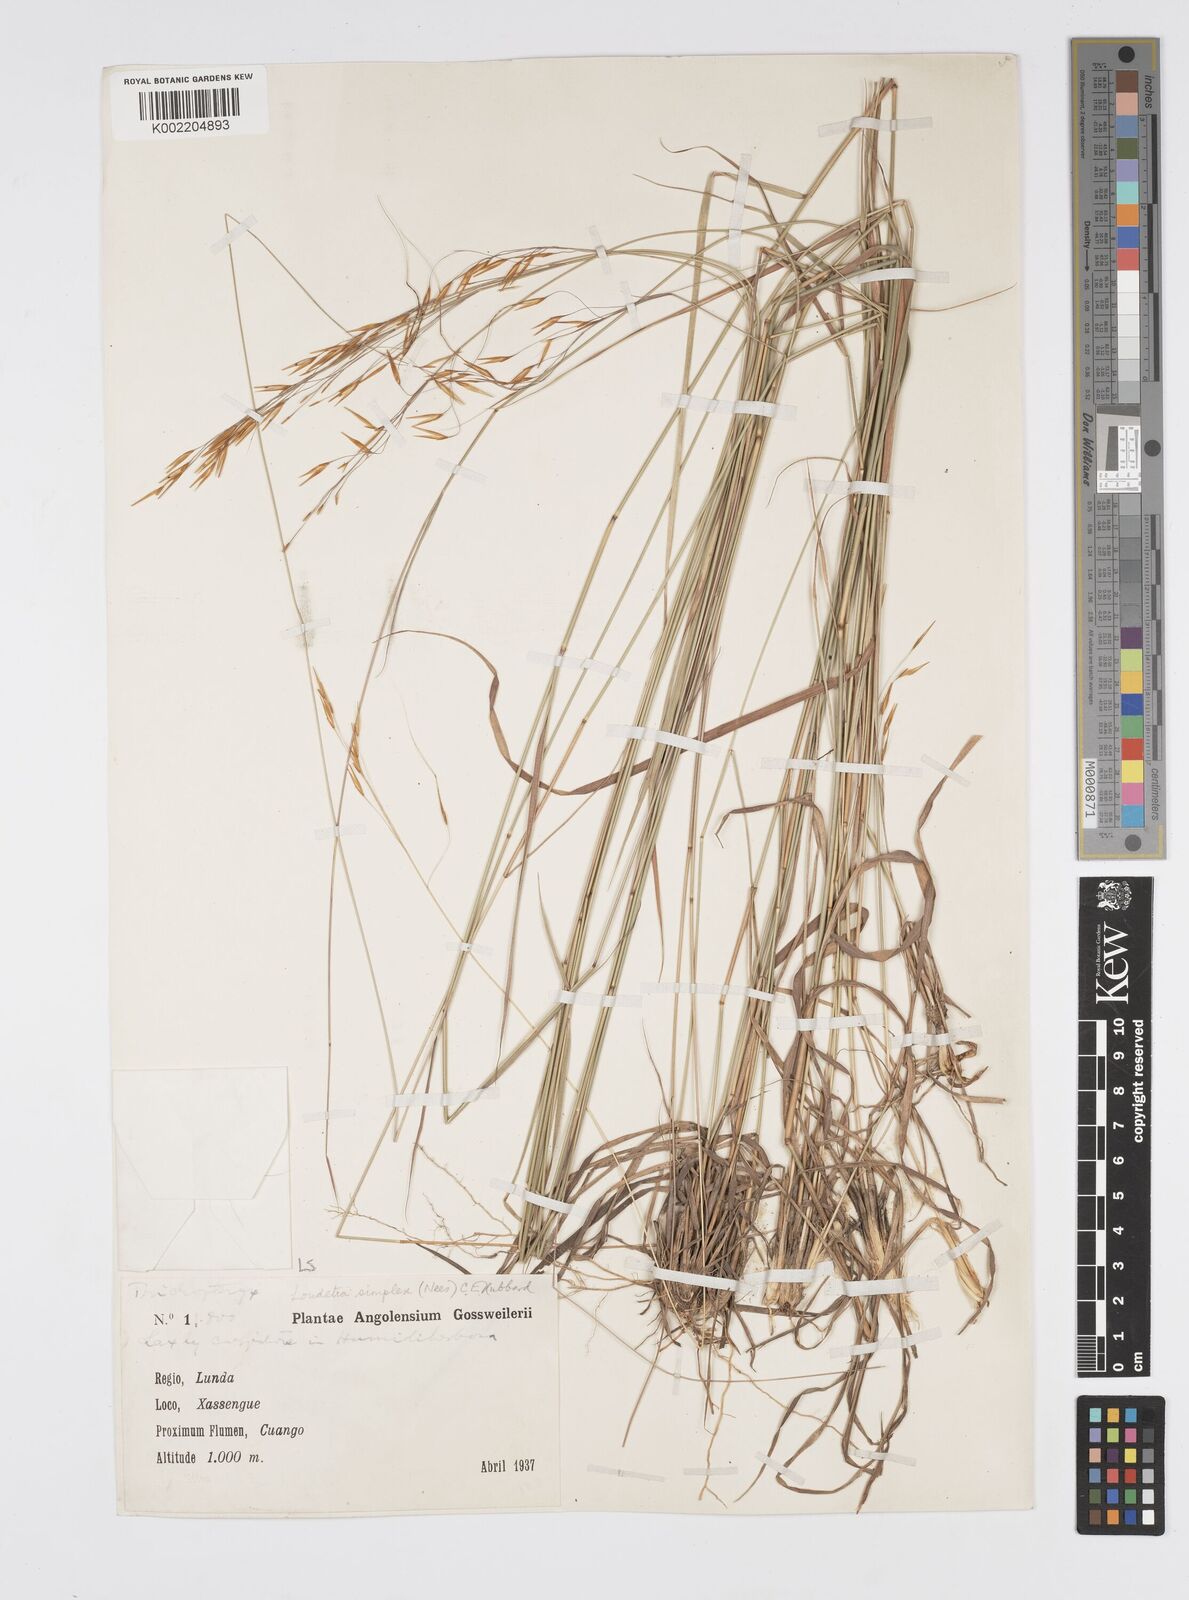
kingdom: Plantae
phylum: Tracheophyta
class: Liliopsida
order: Poales
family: Poaceae
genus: Loudetia
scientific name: Loudetia simplex
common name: Common russet grass
